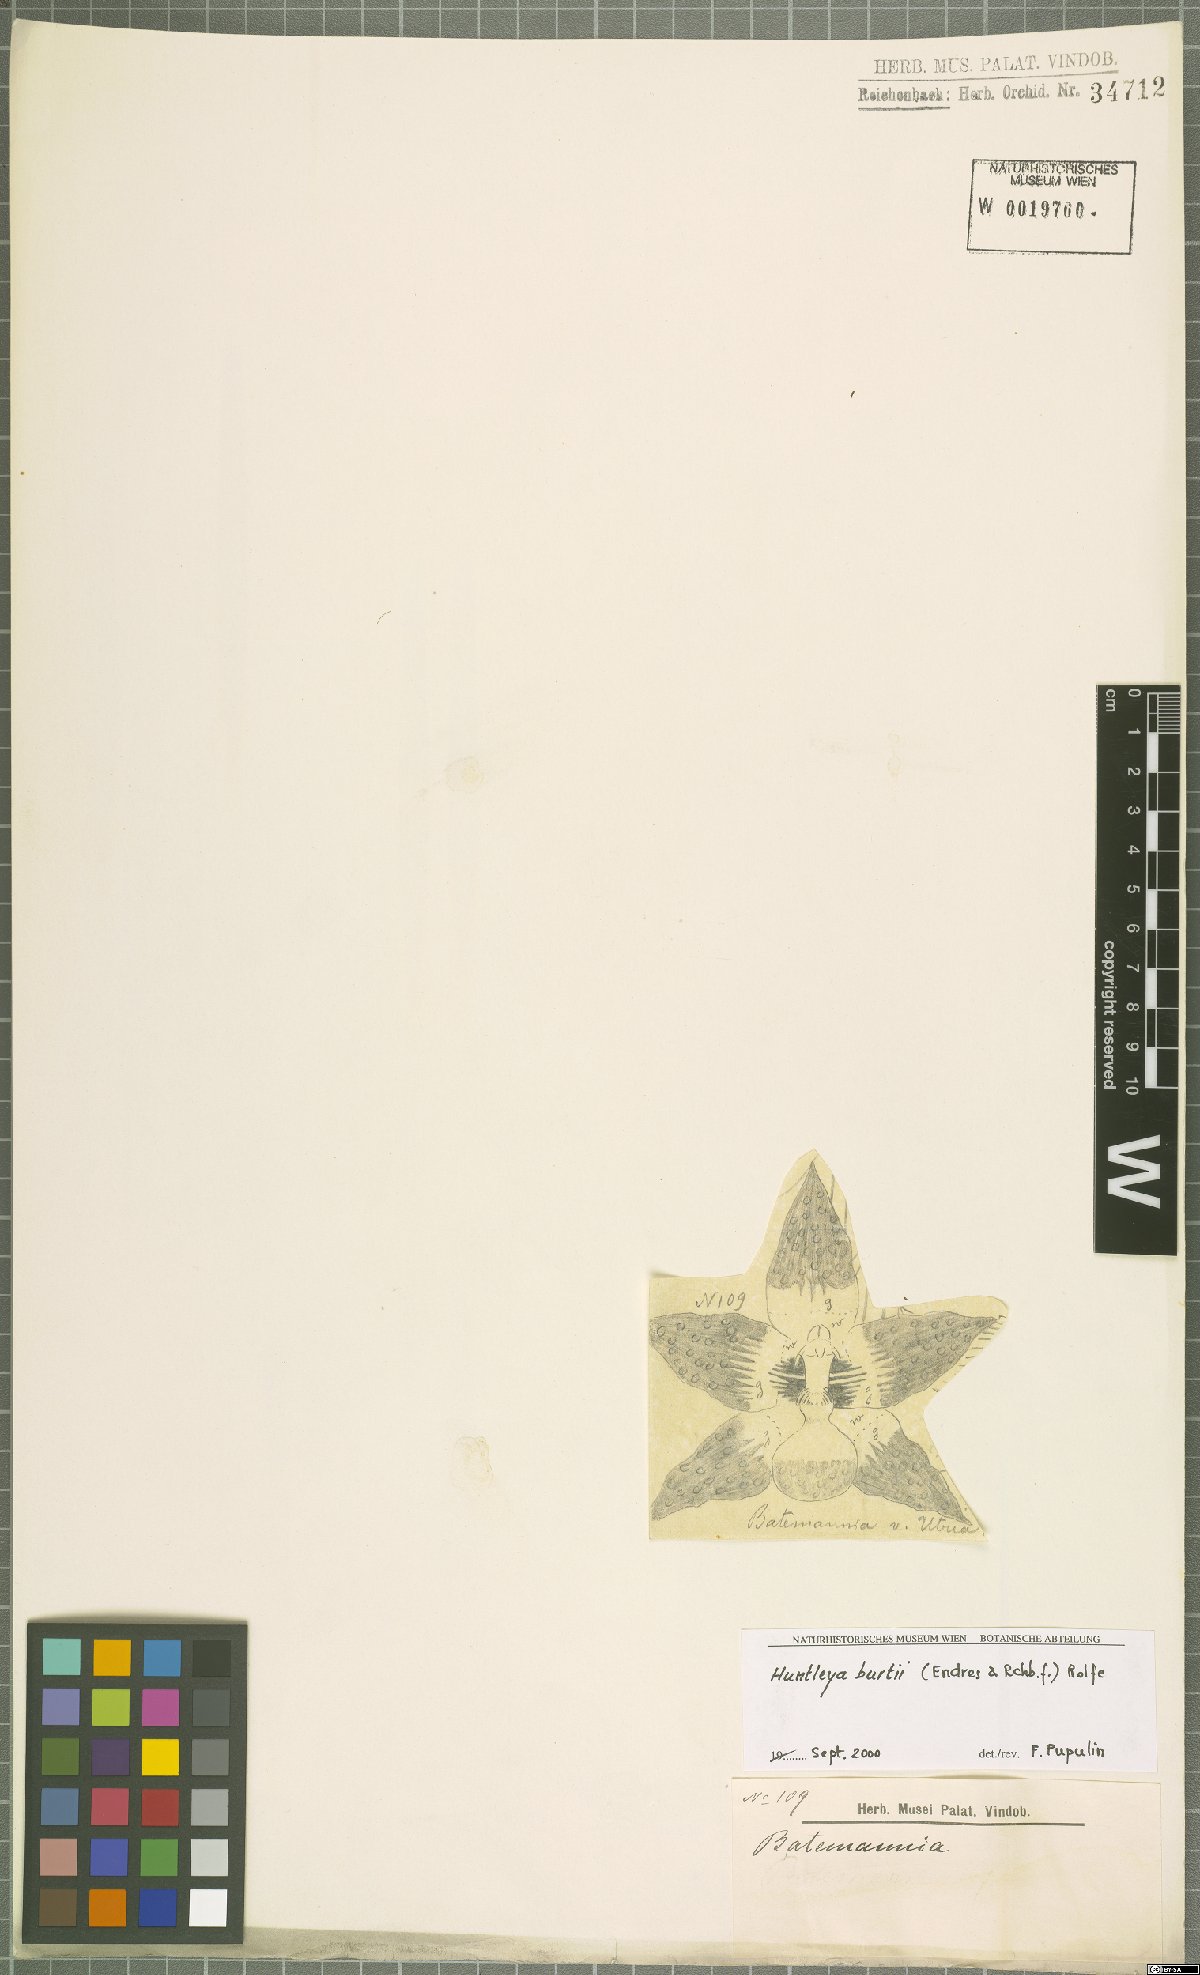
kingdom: Plantae
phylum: Tracheophyta
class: Liliopsida
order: Asparagales
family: Orchidaceae
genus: Huntleya
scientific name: Huntleya burtii
